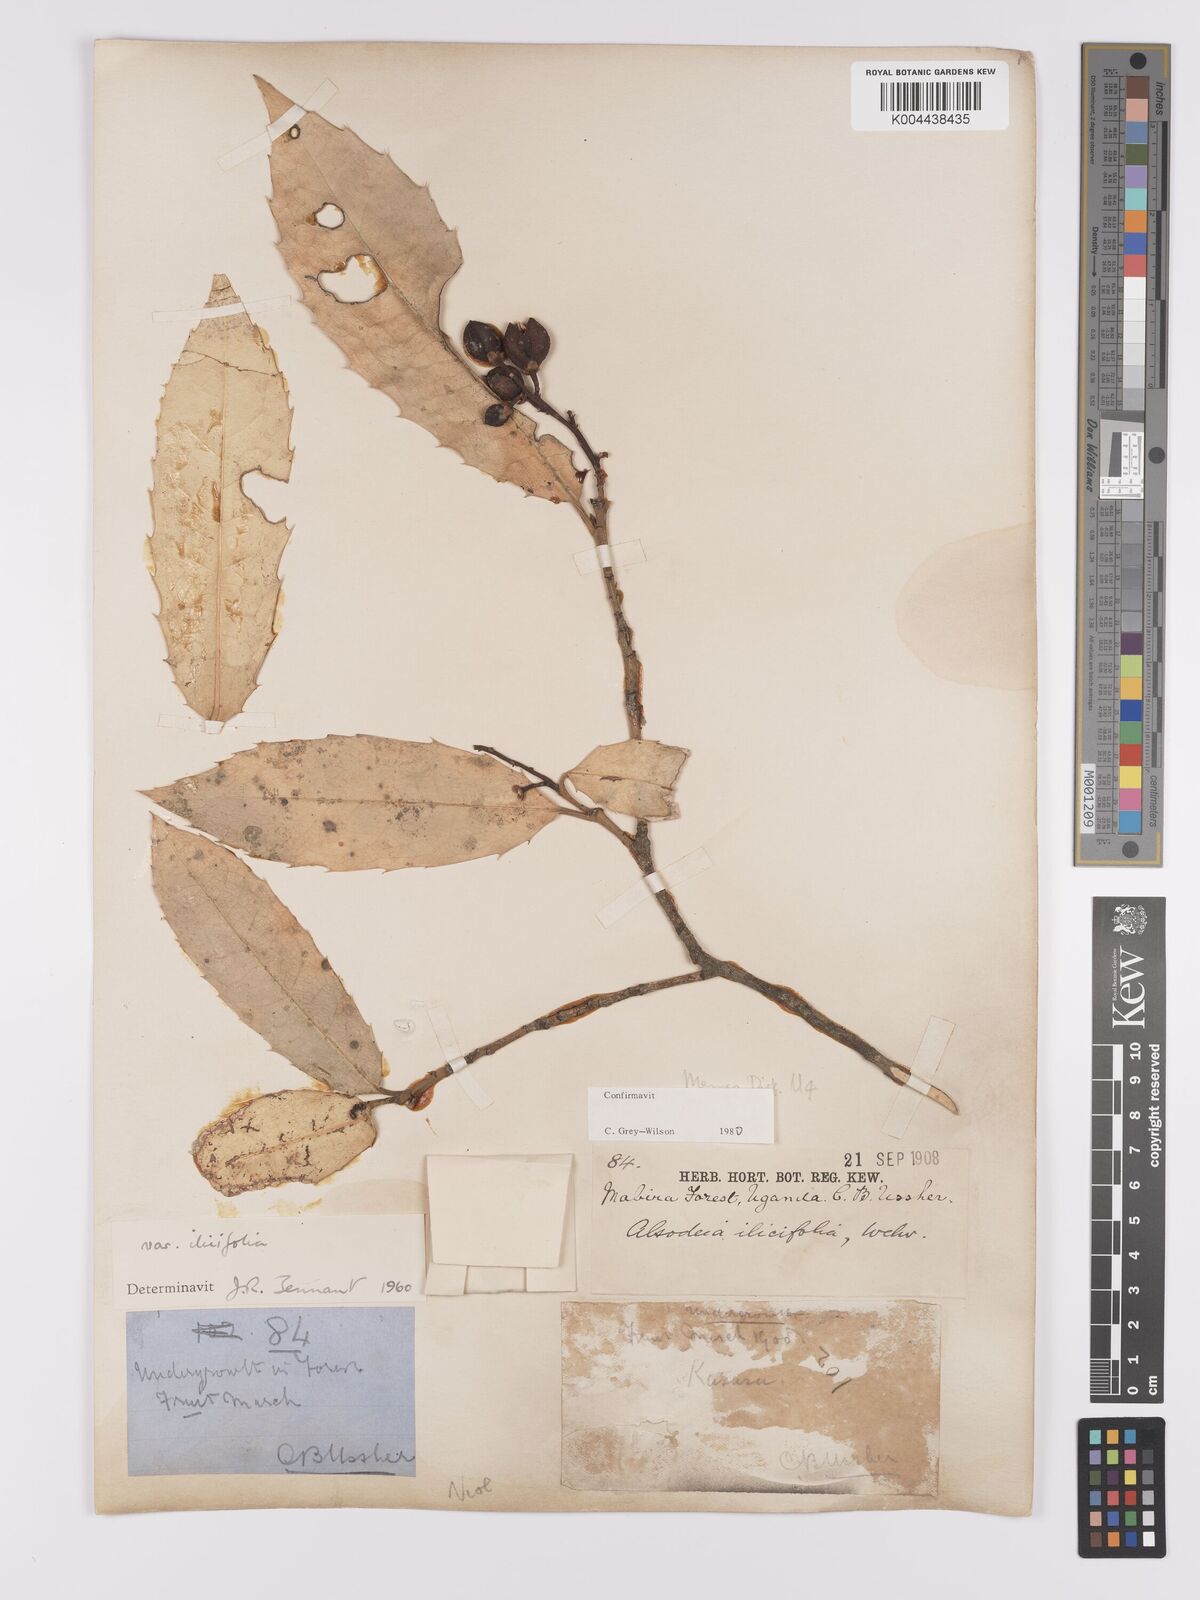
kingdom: Plantae
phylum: Tracheophyta
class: Magnoliopsida
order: Malpighiales
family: Violaceae
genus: Rinorea
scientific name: Rinorea ilicifolia
